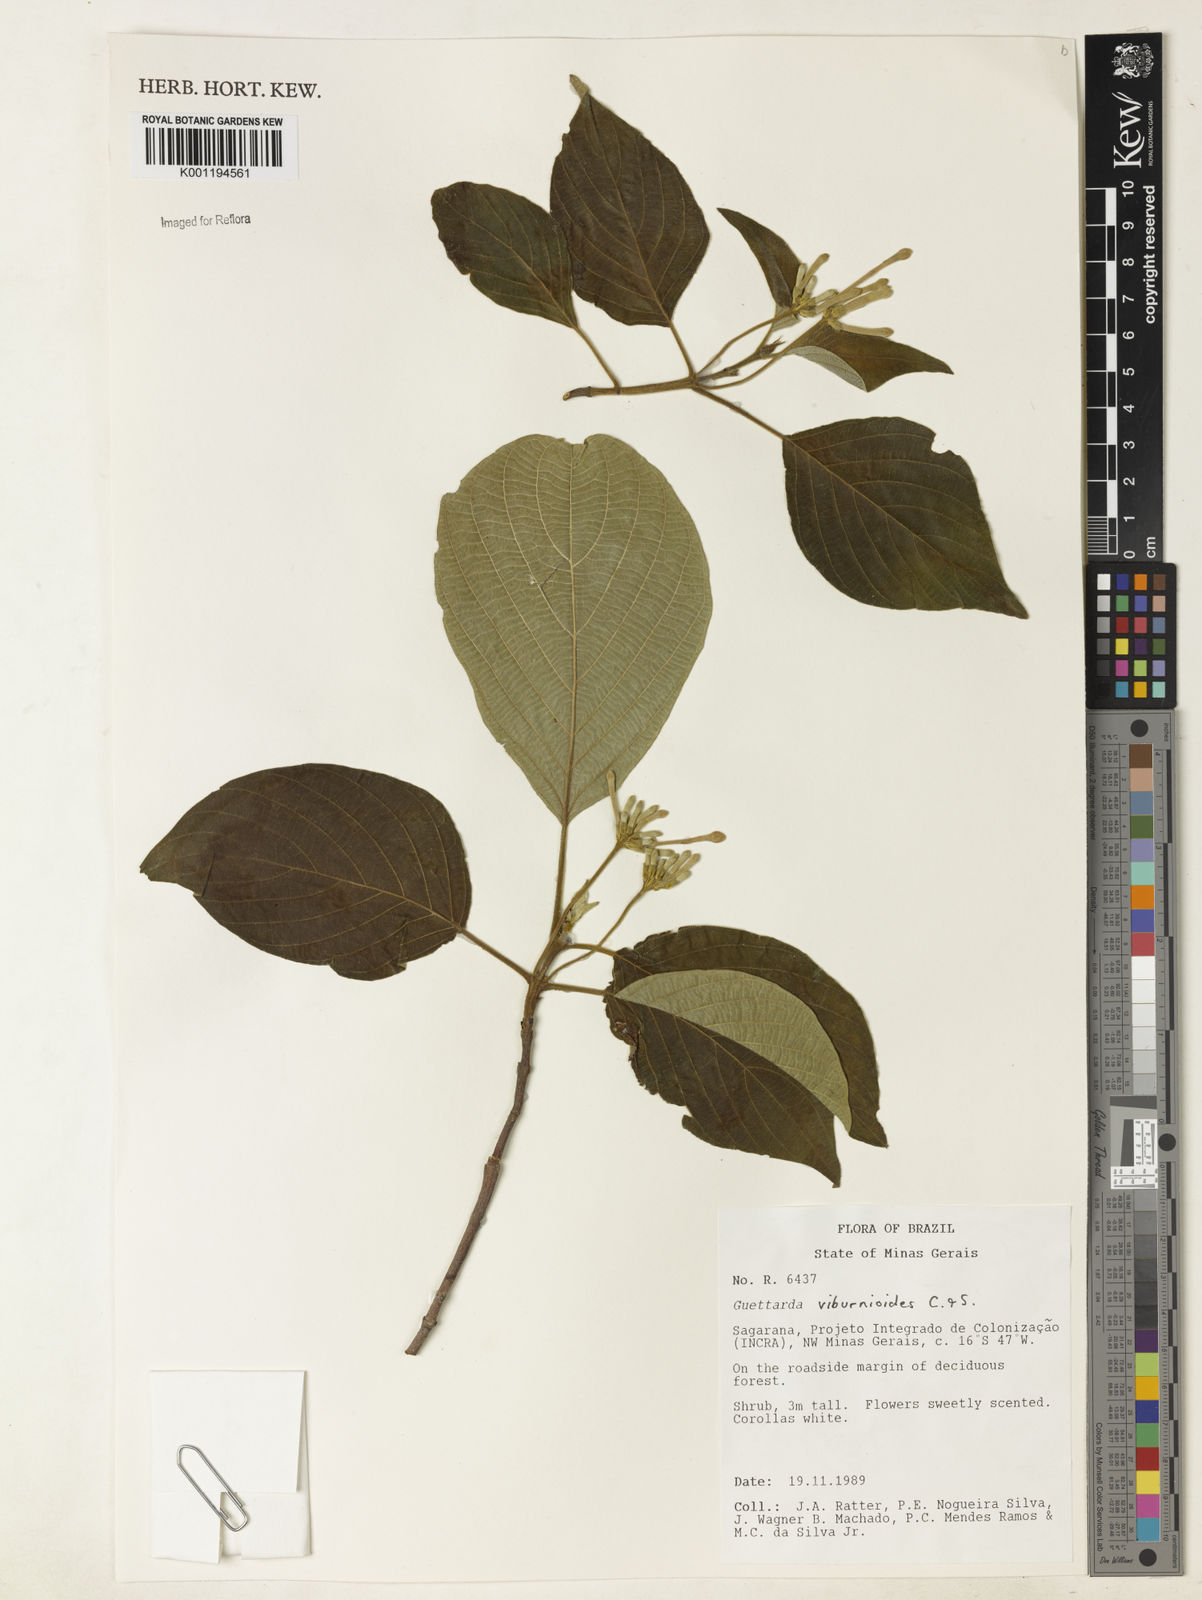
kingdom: Plantae
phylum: Tracheophyta
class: Magnoliopsida
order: Gentianales
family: Rubiaceae
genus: Guettarda
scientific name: Guettarda viburnoides
